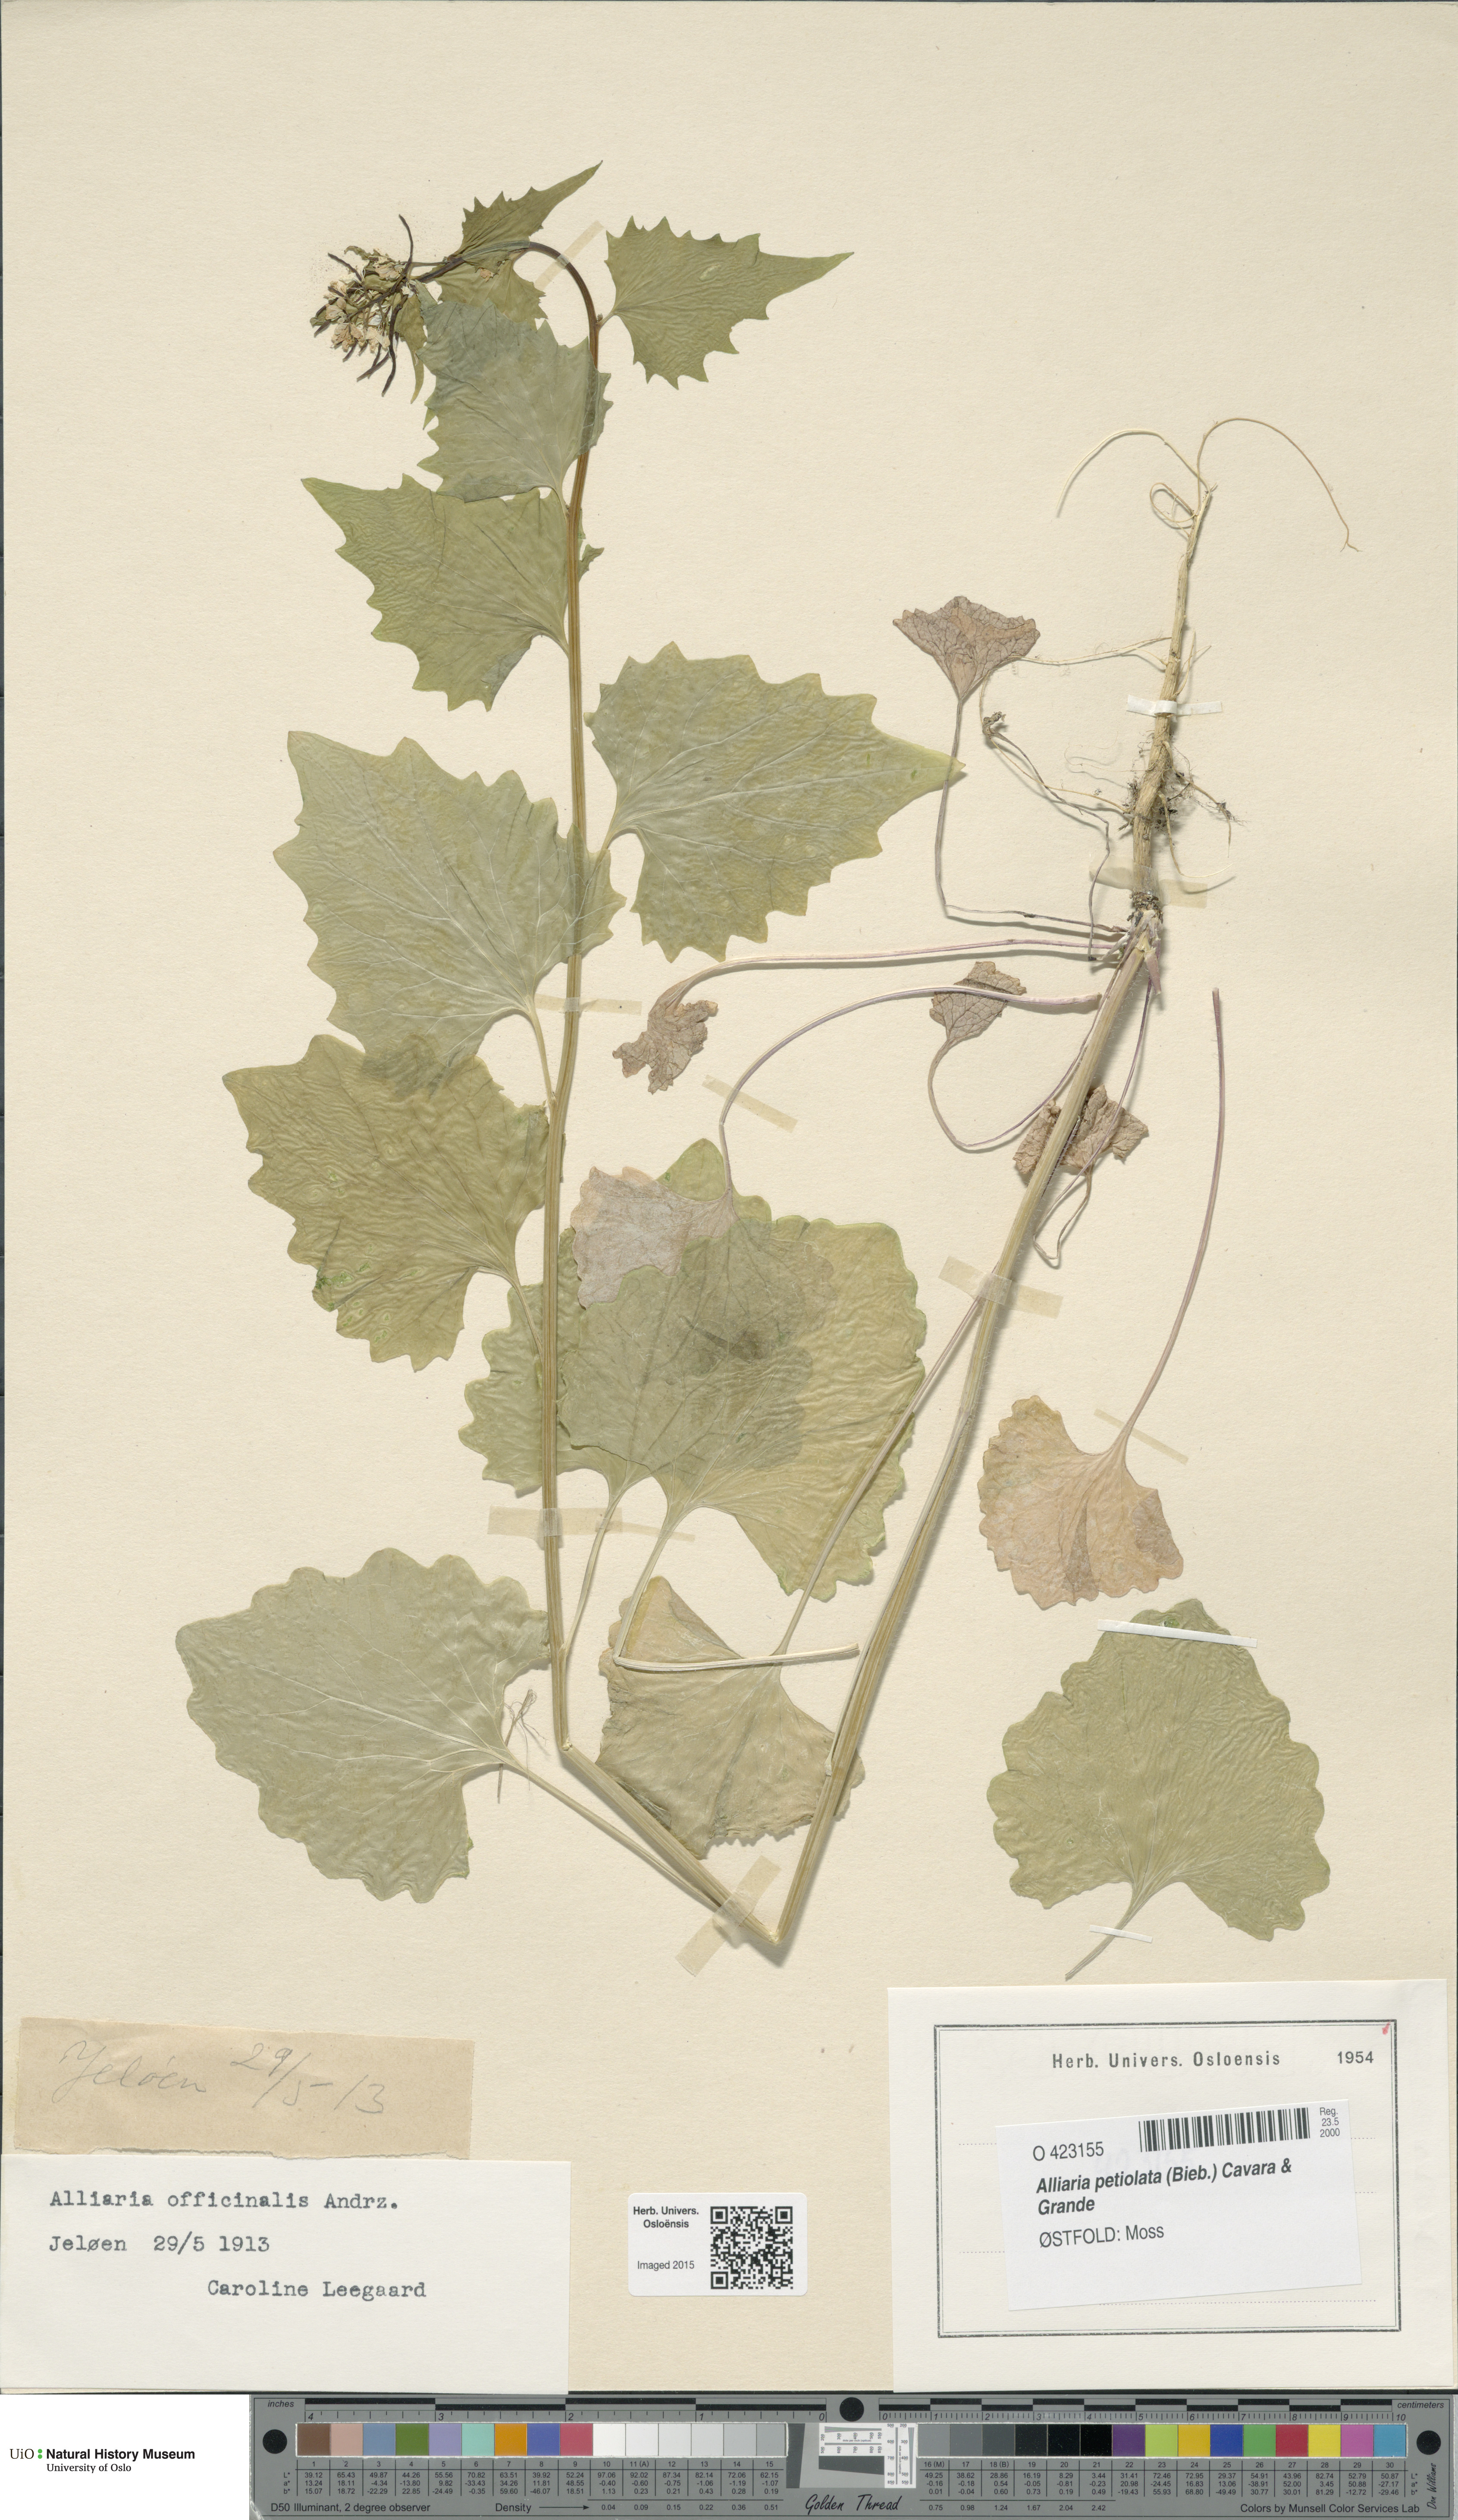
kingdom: Plantae
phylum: Tracheophyta
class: Magnoliopsida
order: Brassicales
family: Brassicaceae
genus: Alliaria
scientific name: Alliaria petiolata
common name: Garlic mustard
